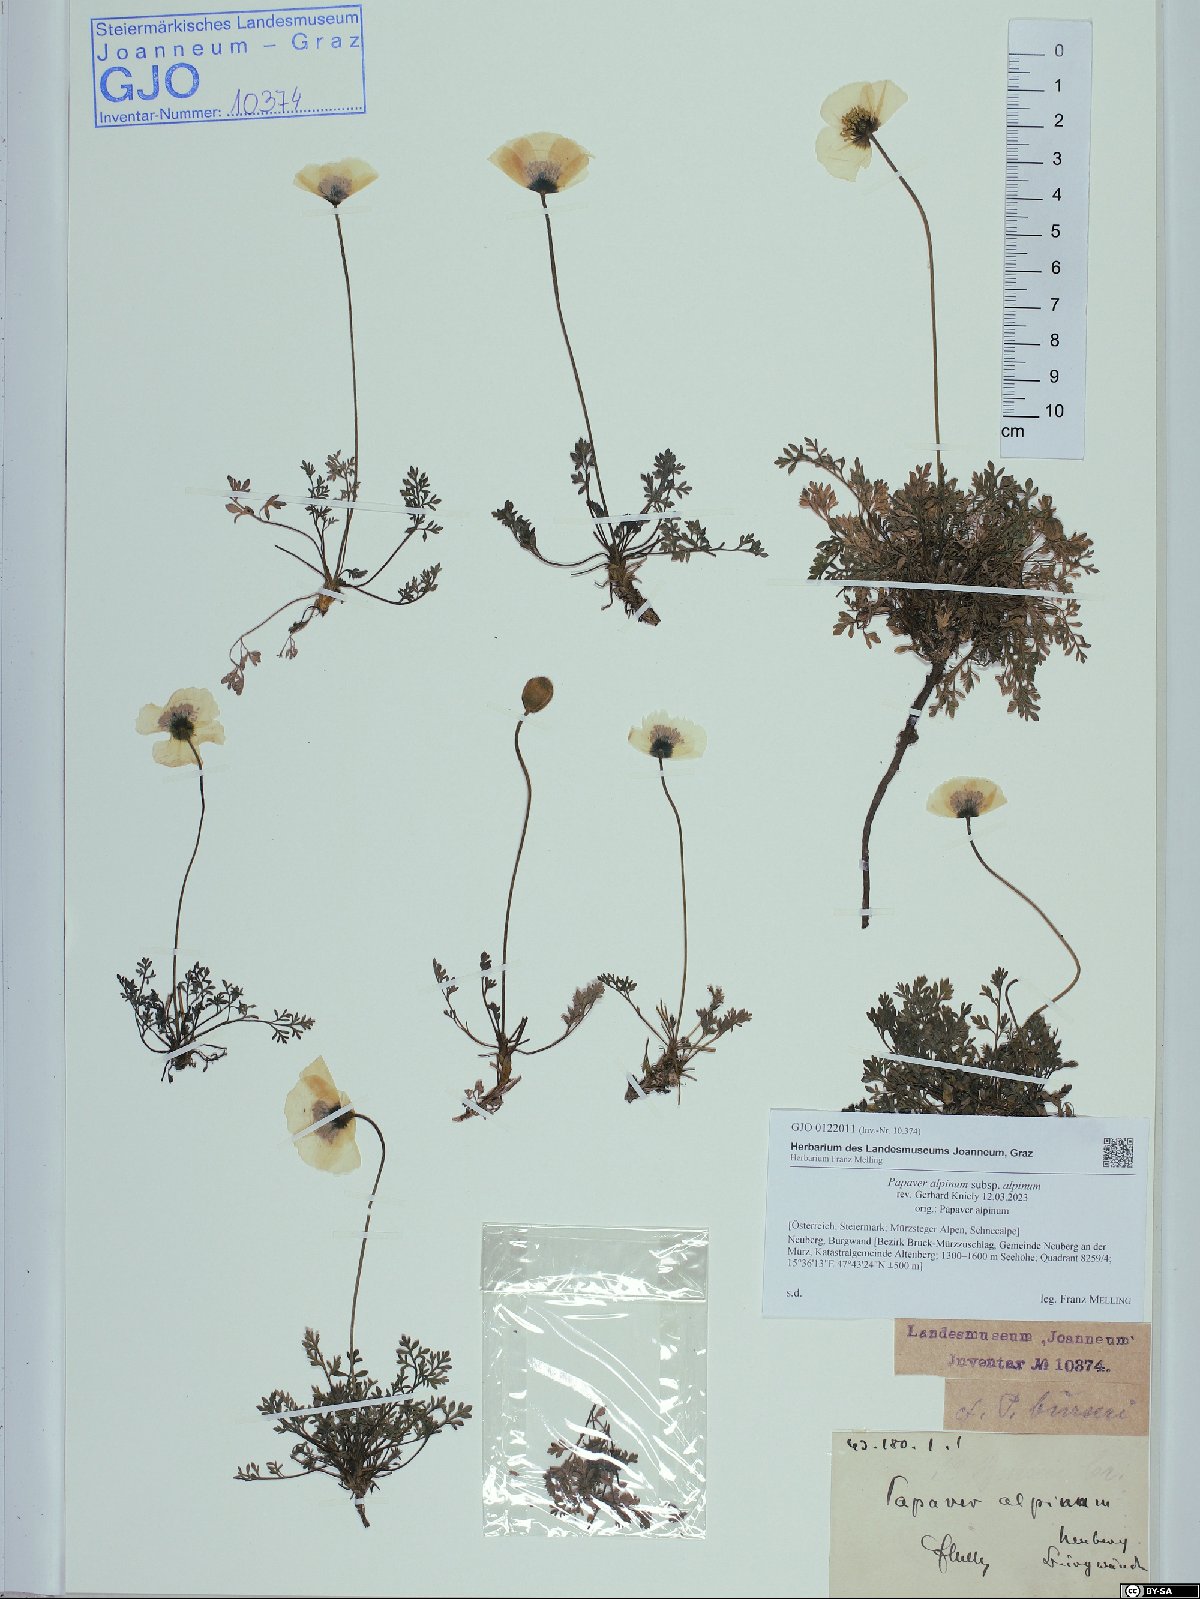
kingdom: Plantae
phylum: Tracheophyta
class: Magnoliopsida
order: Ranunculales
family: Papaveraceae
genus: Papaver
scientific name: Papaver alpinum
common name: Austrian poppy
